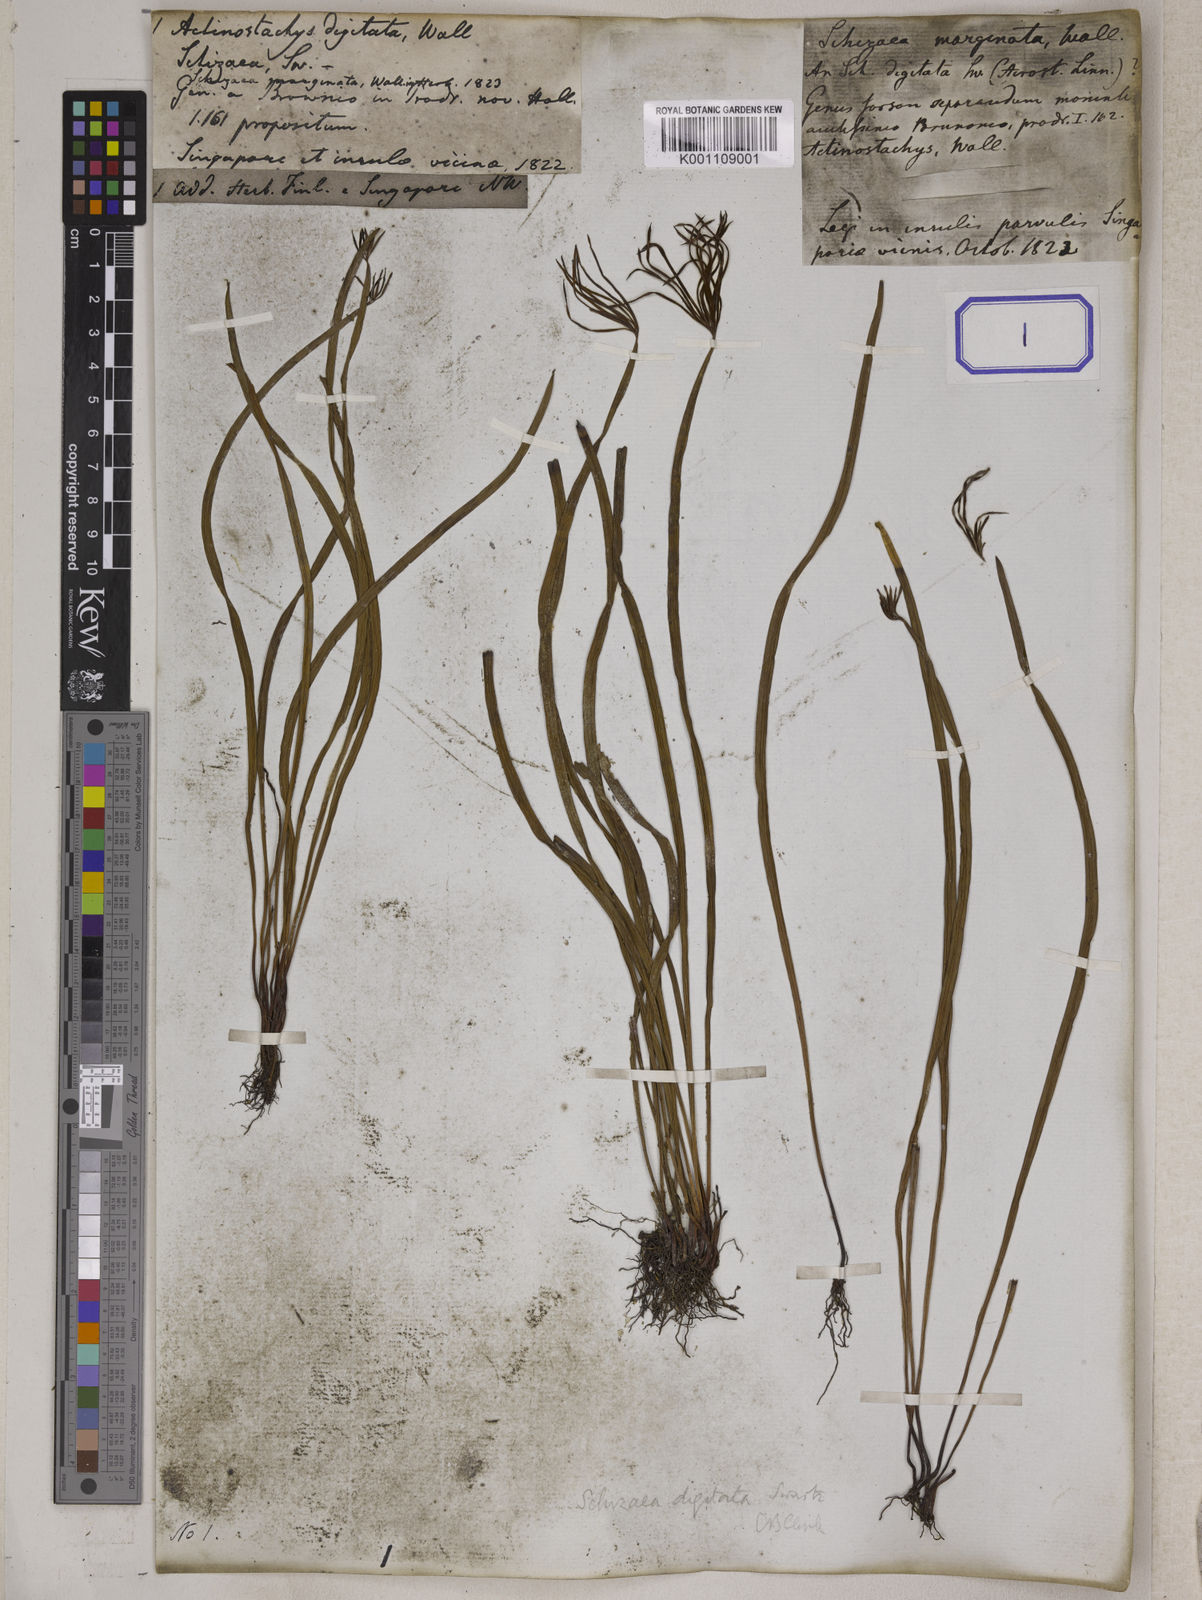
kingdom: Plantae
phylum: Tracheophyta
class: Polypodiopsida
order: Schizaeales
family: Schizaeaceae
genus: Actinostachys
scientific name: Actinostachys digitata
